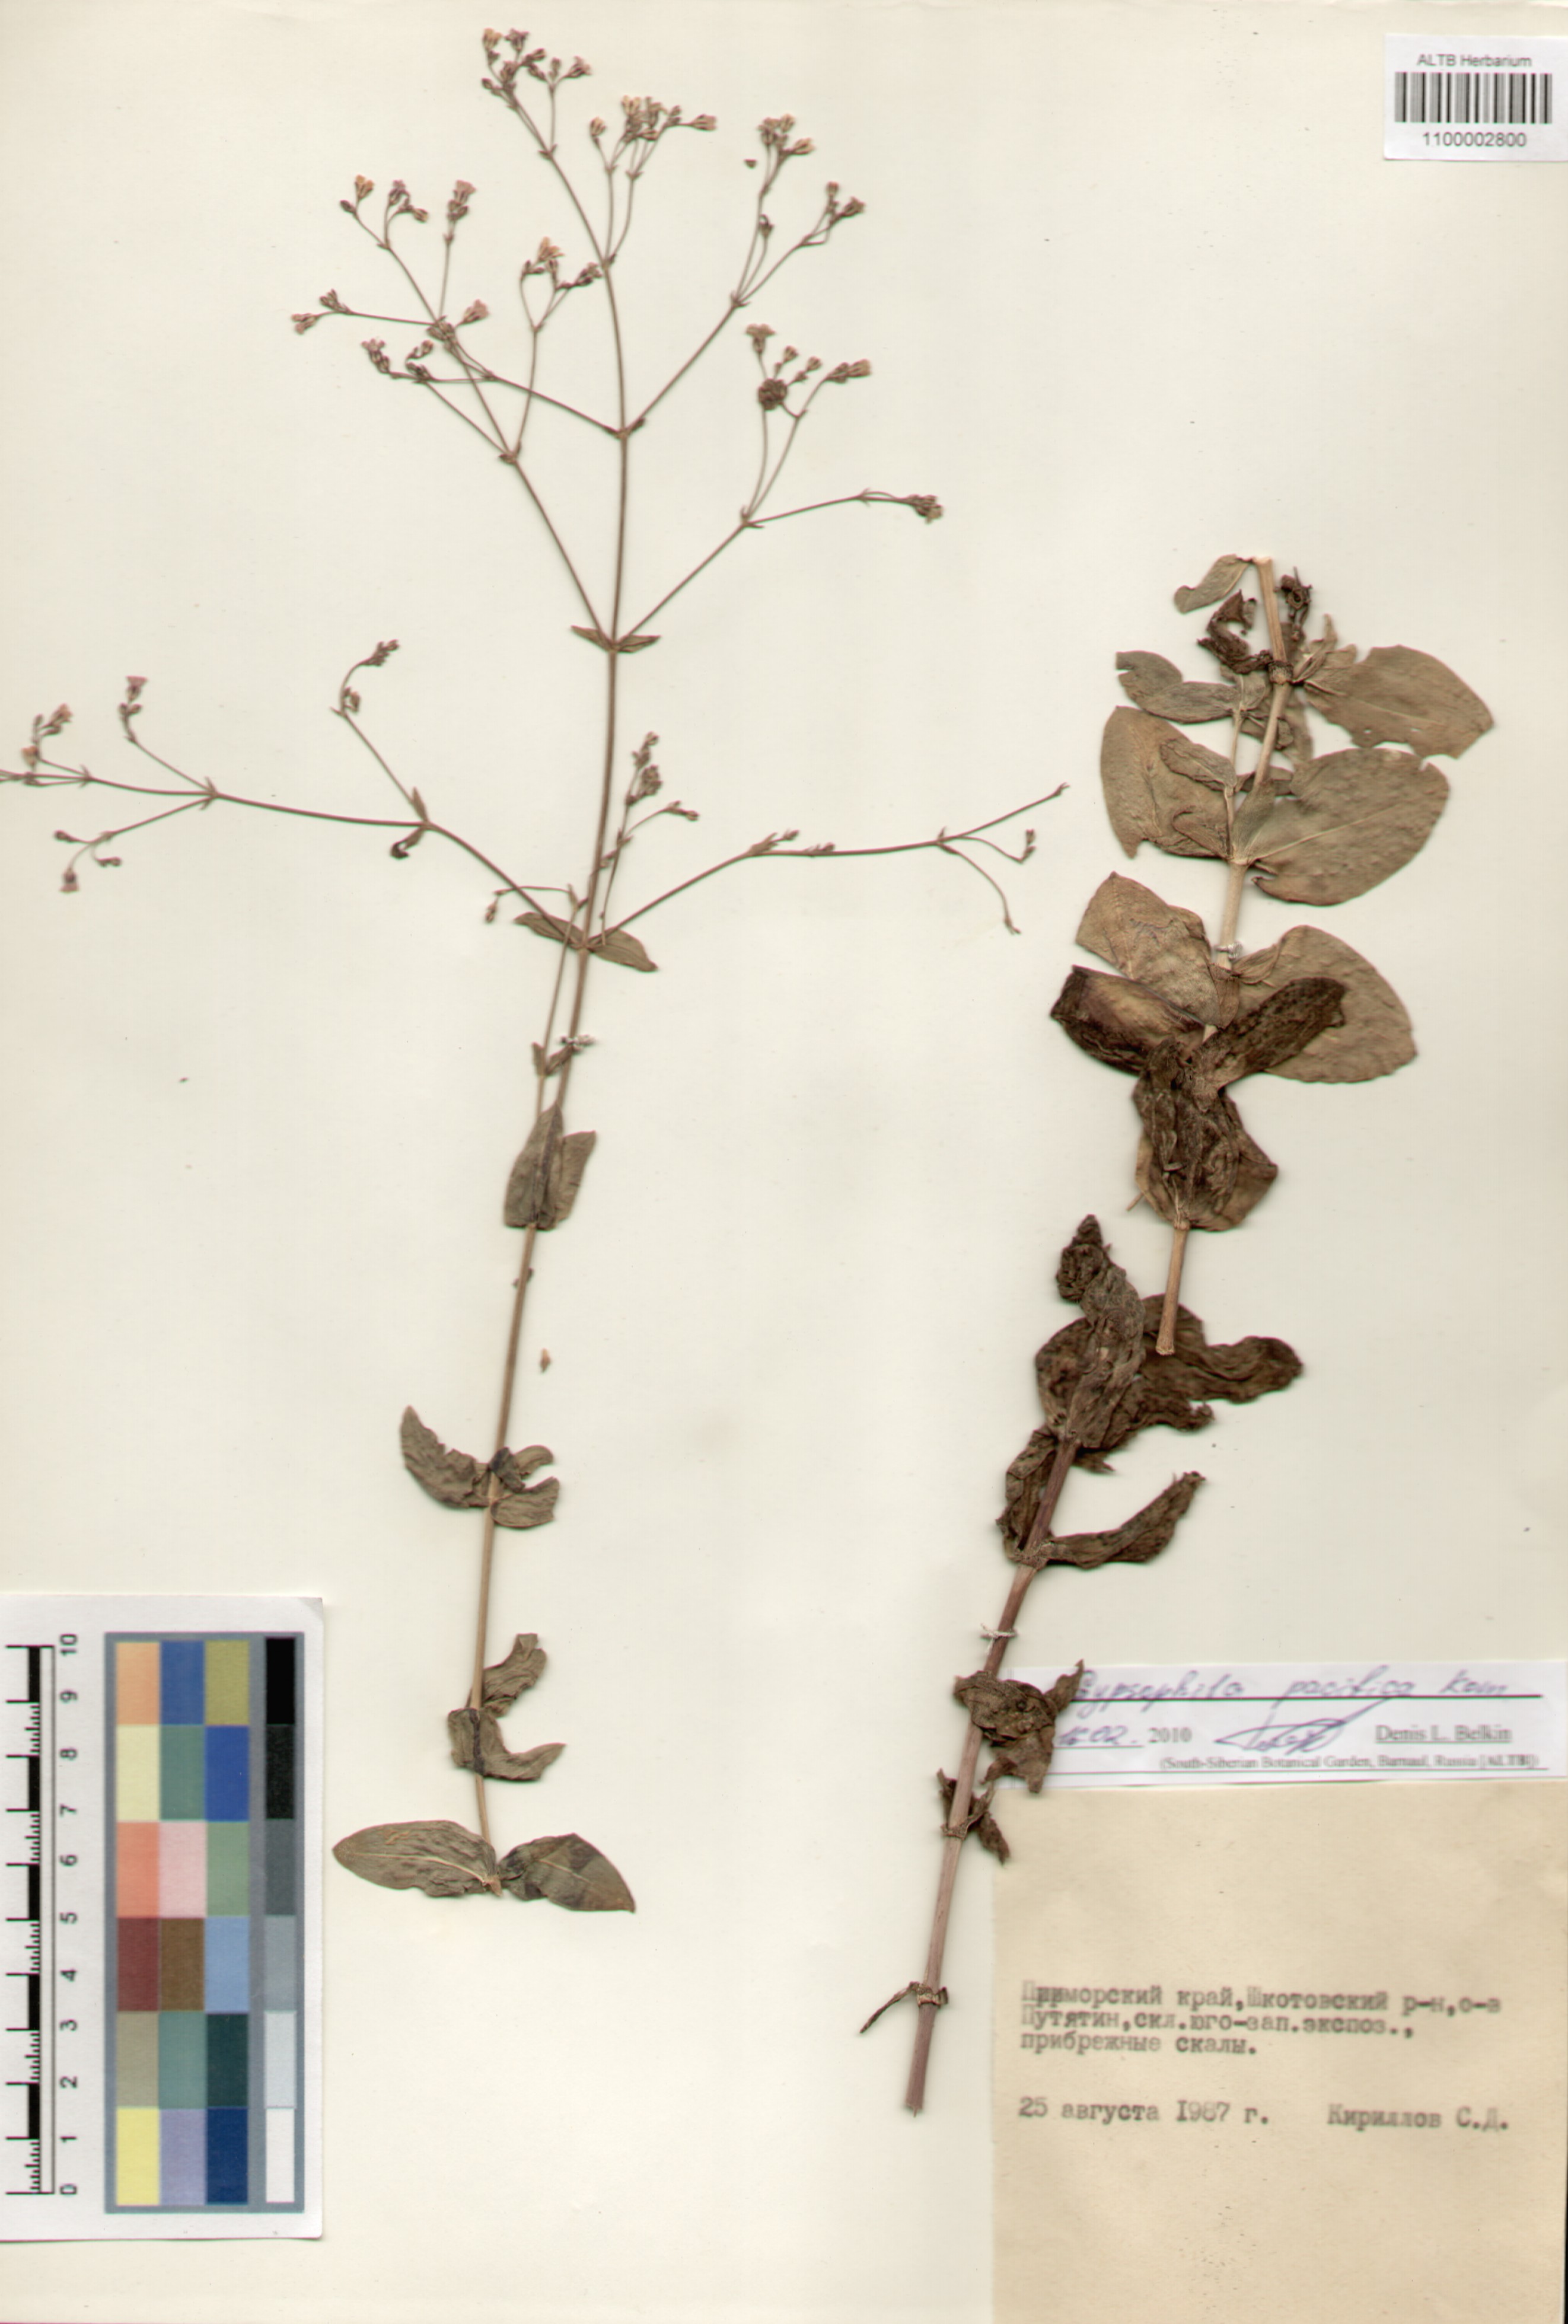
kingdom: Plantae
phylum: Tracheophyta
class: Magnoliopsida
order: Caryophyllales
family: Caryophyllaceae
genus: Gypsophila
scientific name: Gypsophila pacifica
